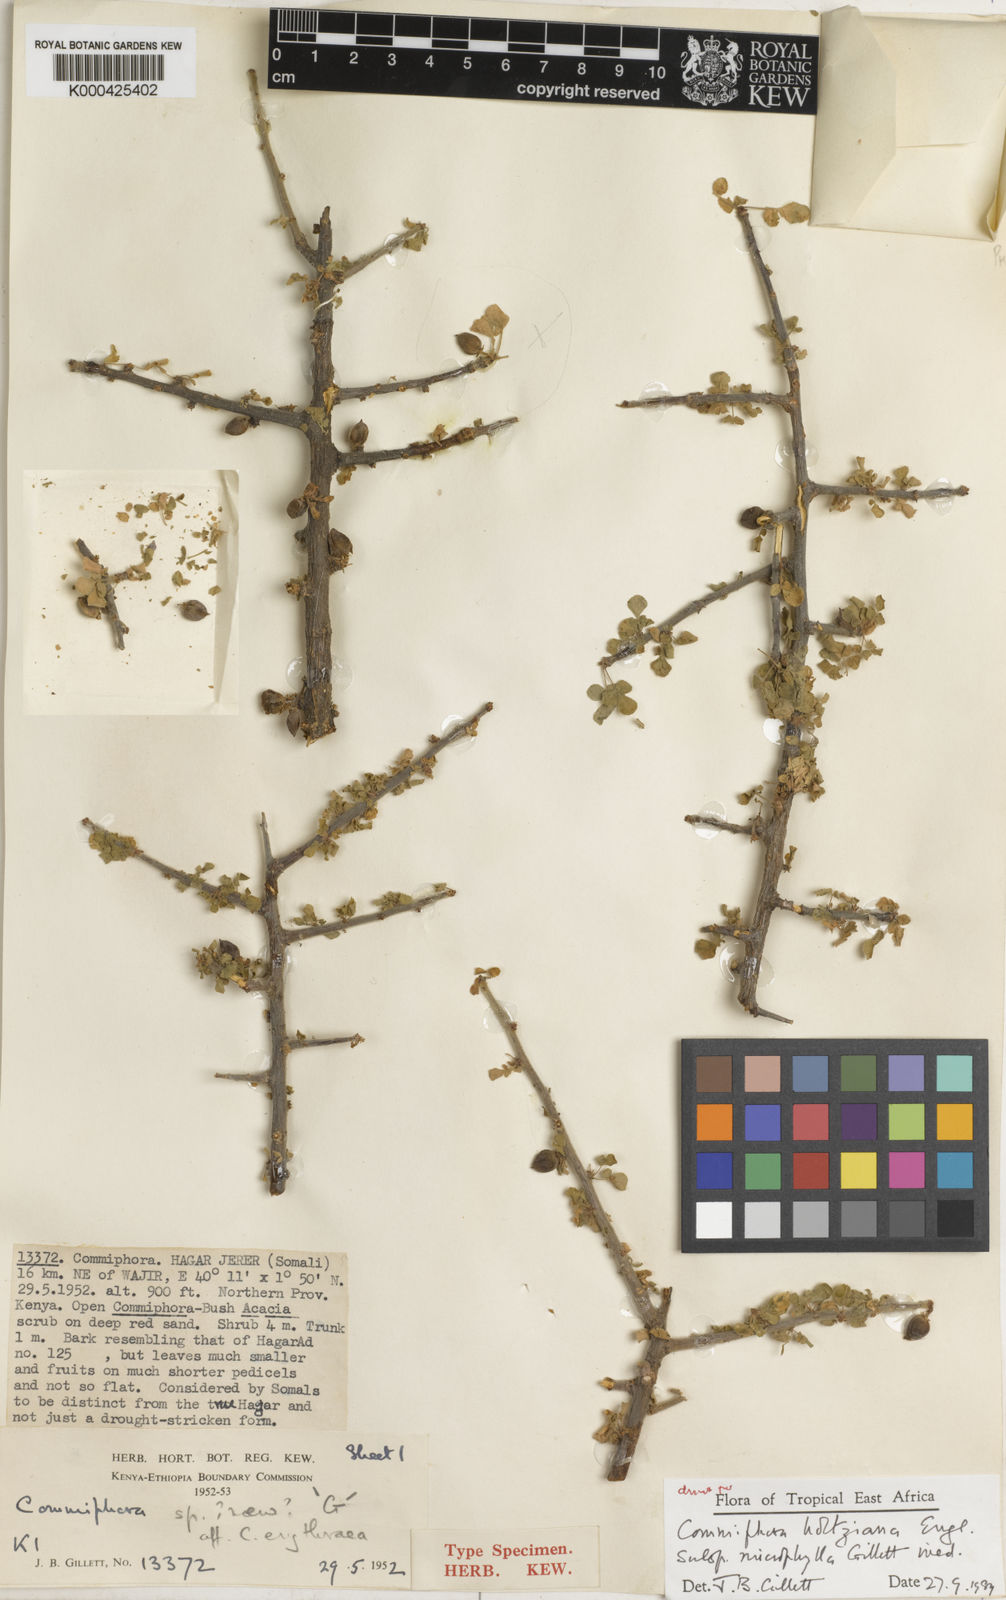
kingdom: Plantae
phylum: Tracheophyta
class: Magnoliopsida
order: Sapindales
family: Burseraceae
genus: Commiphora
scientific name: Commiphora kataf
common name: Bisabol myrrh
